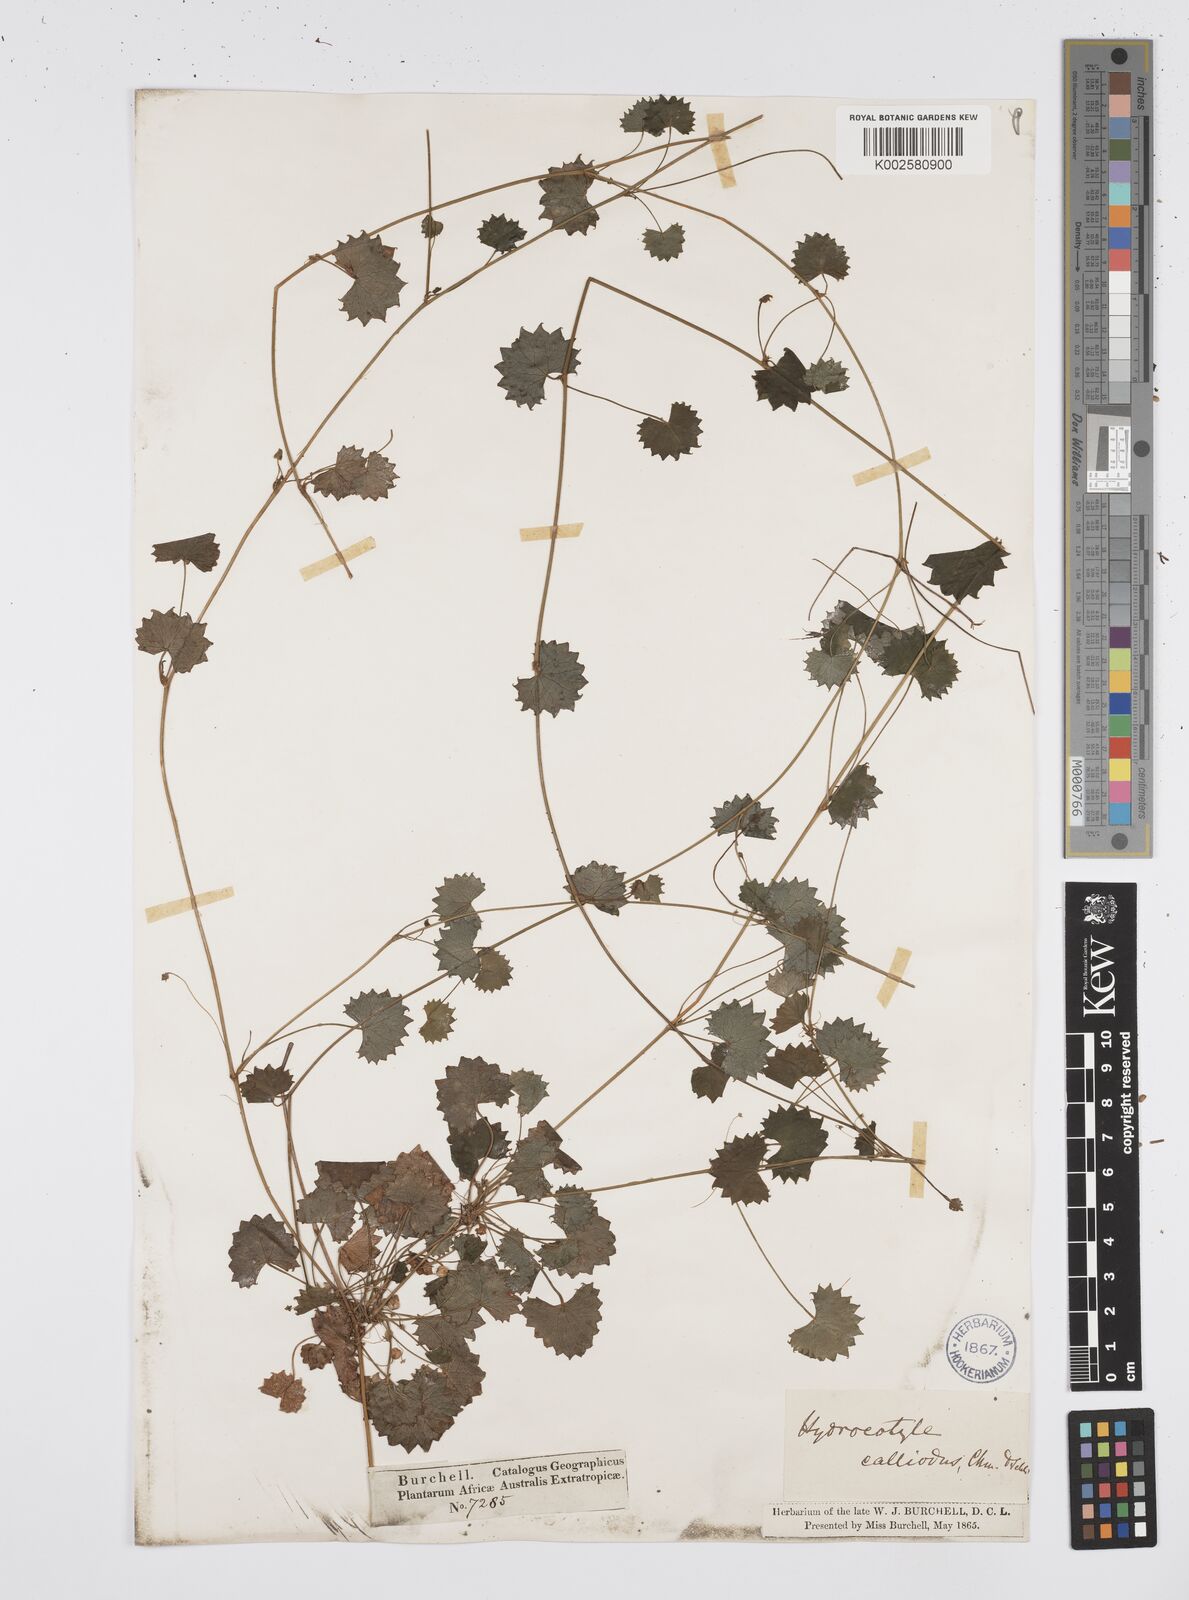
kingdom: Plantae
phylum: Tracheophyta
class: Magnoliopsida
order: Apiales
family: Apiaceae
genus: Centella
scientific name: Centella
